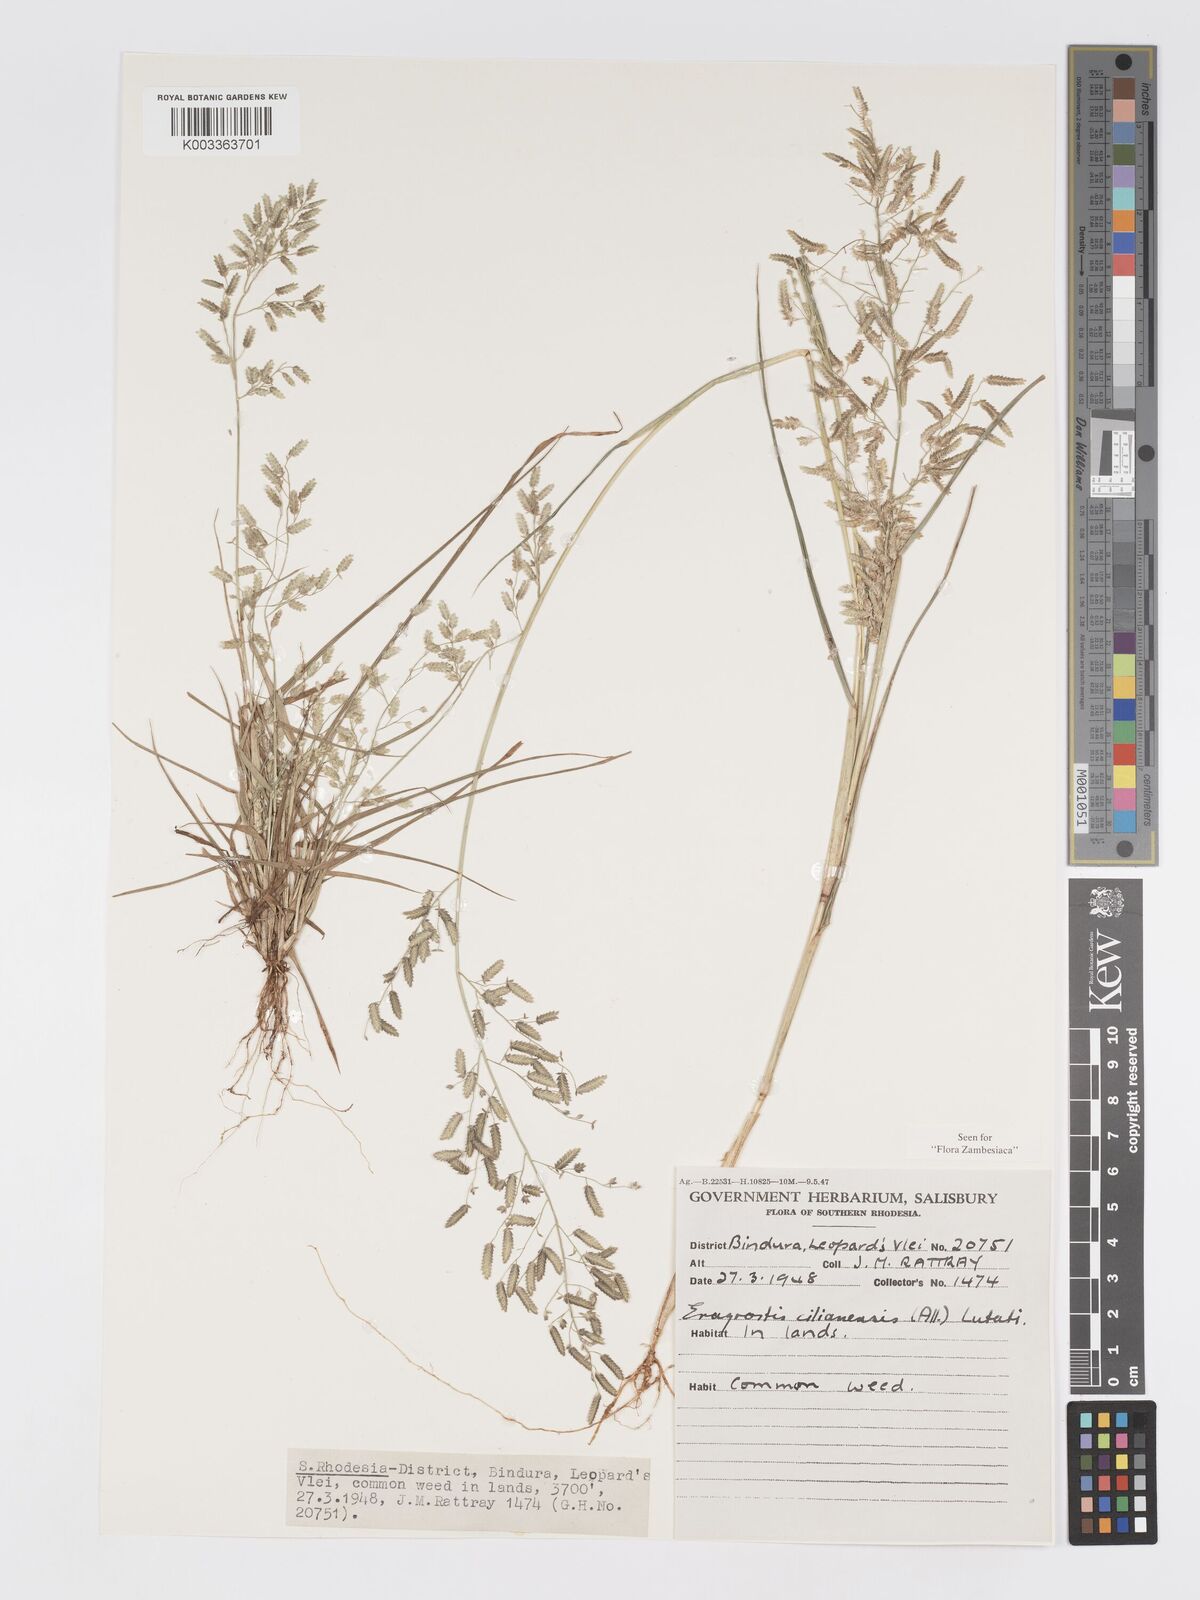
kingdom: Plantae
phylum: Tracheophyta
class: Liliopsida
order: Poales
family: Poaceae
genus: Eragrostis
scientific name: Eragrostis cilianensis
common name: Stinkgrass
